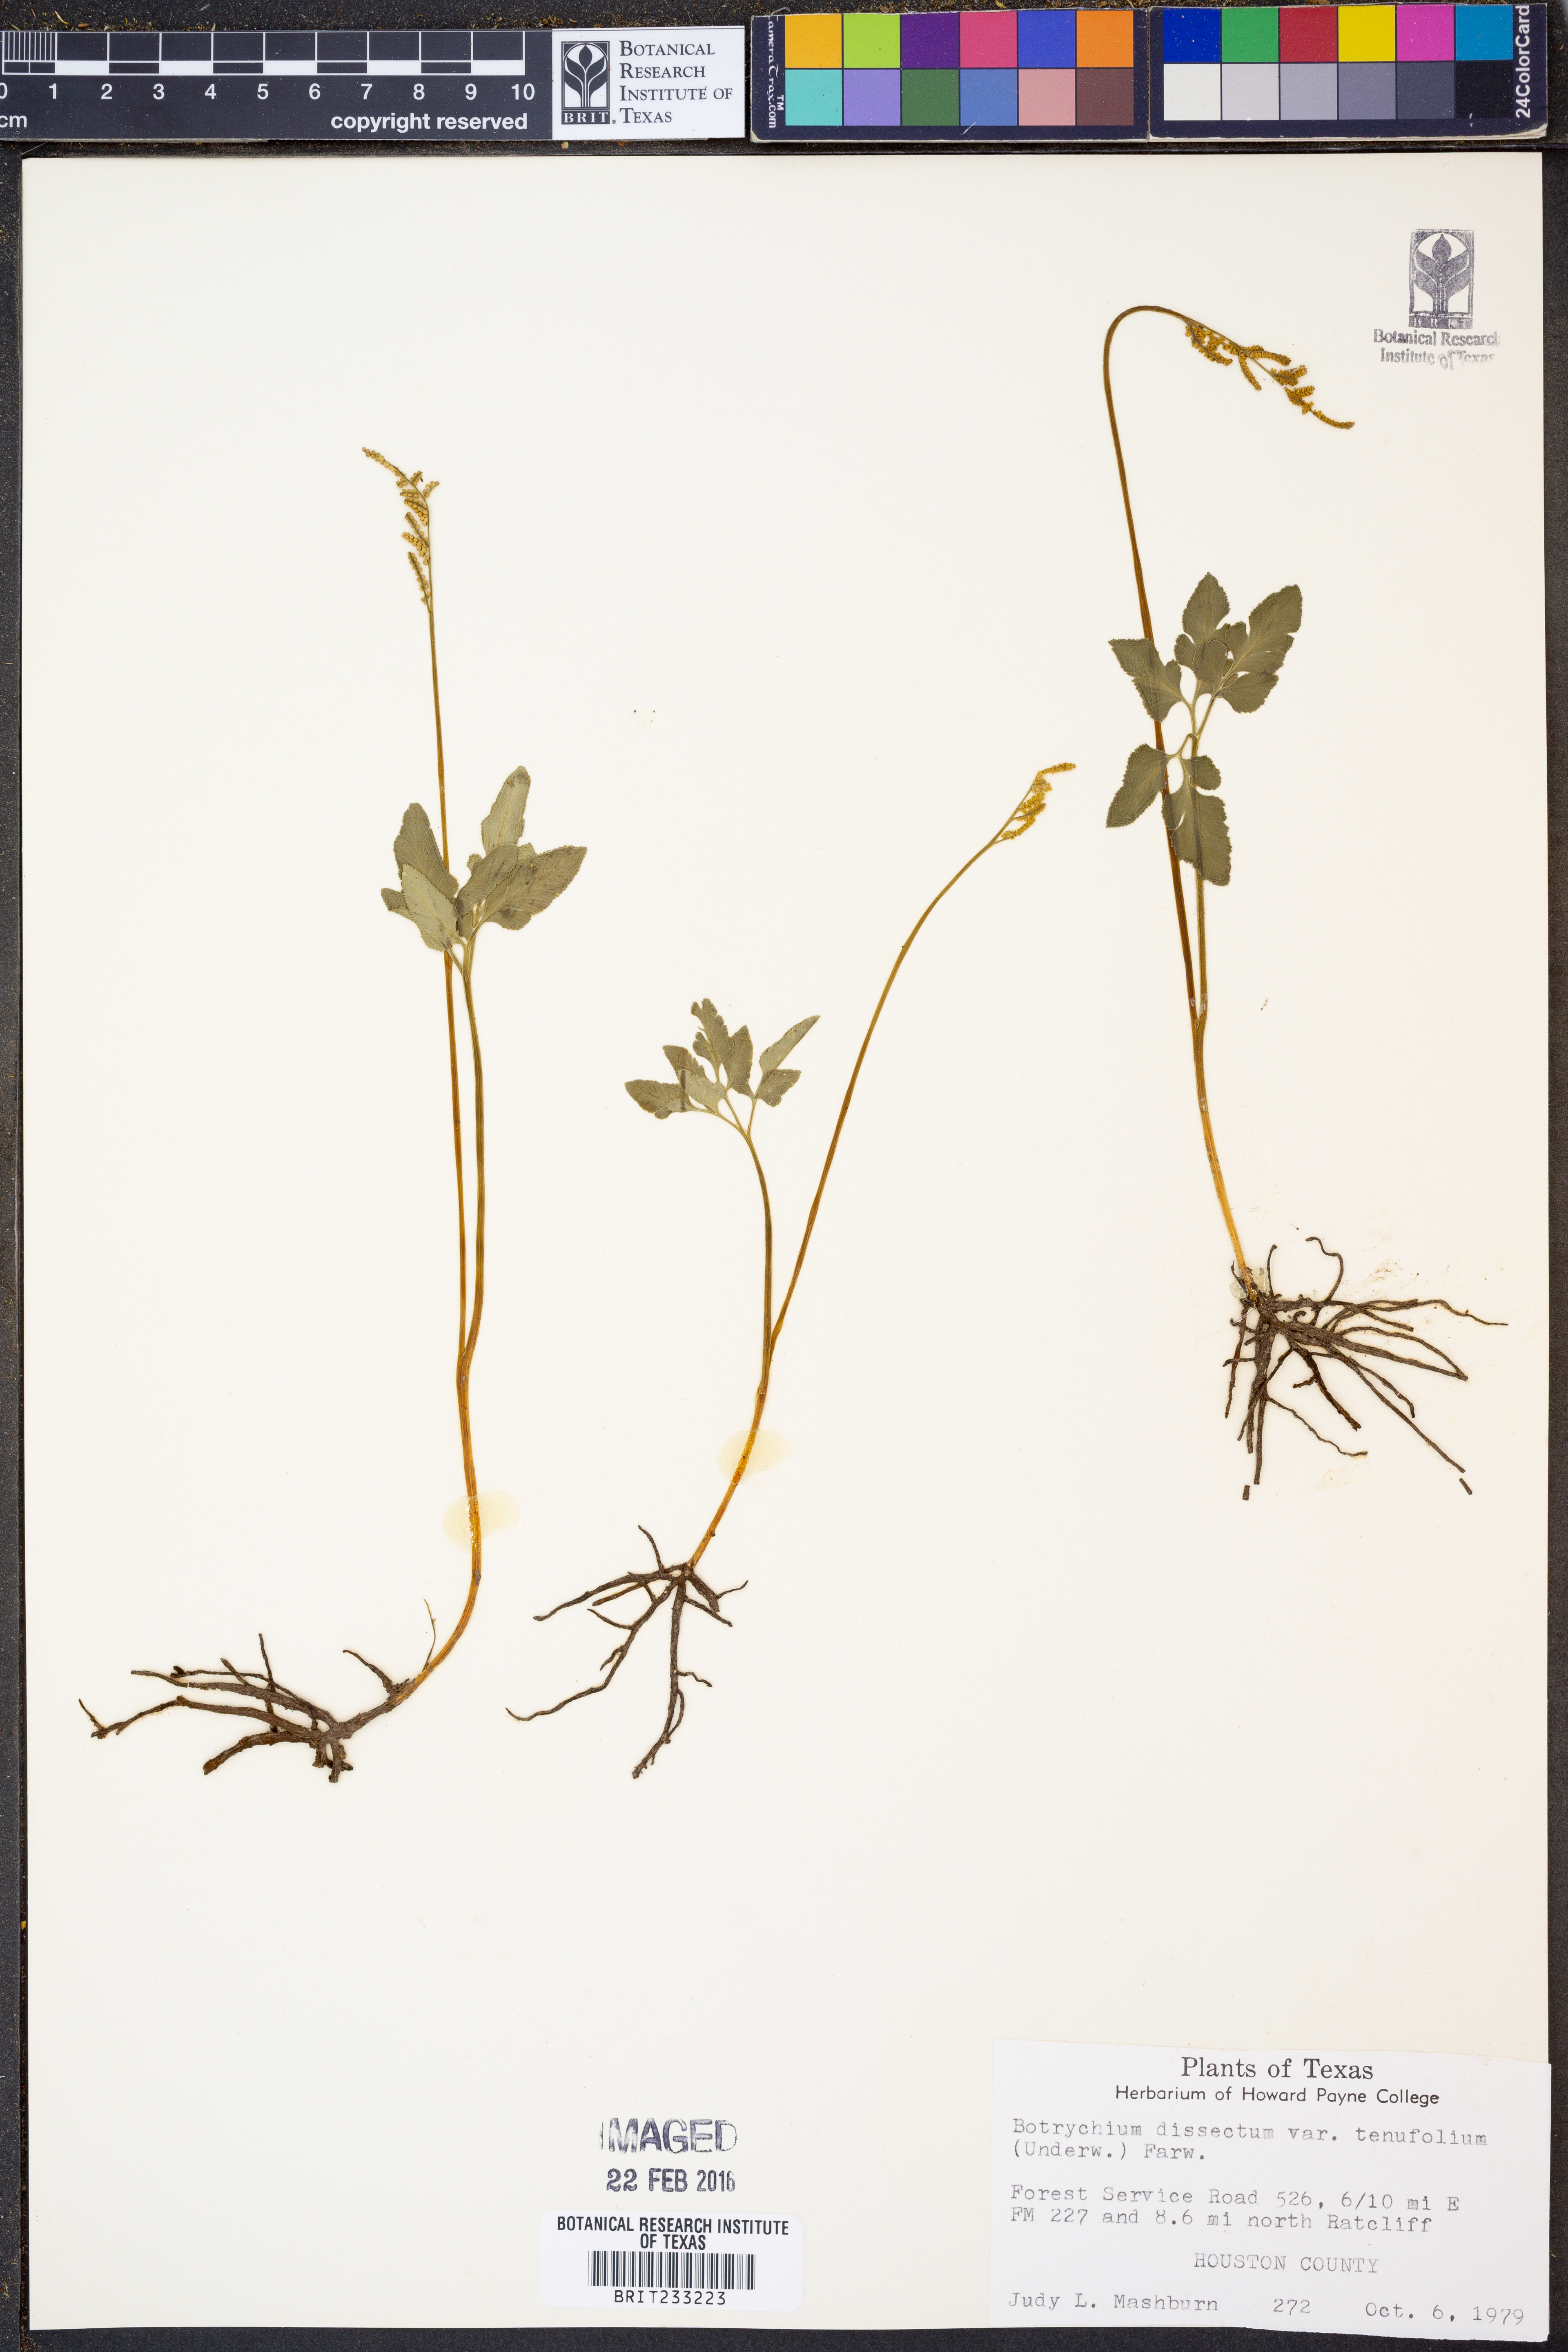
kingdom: Plantae
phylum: Tracheophyta
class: Polypodiopsida
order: Ophioglossales
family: Ophioglossaceae
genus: Sceptridium
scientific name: Sceptridium biternatum
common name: Sparse-lobed grapefern
